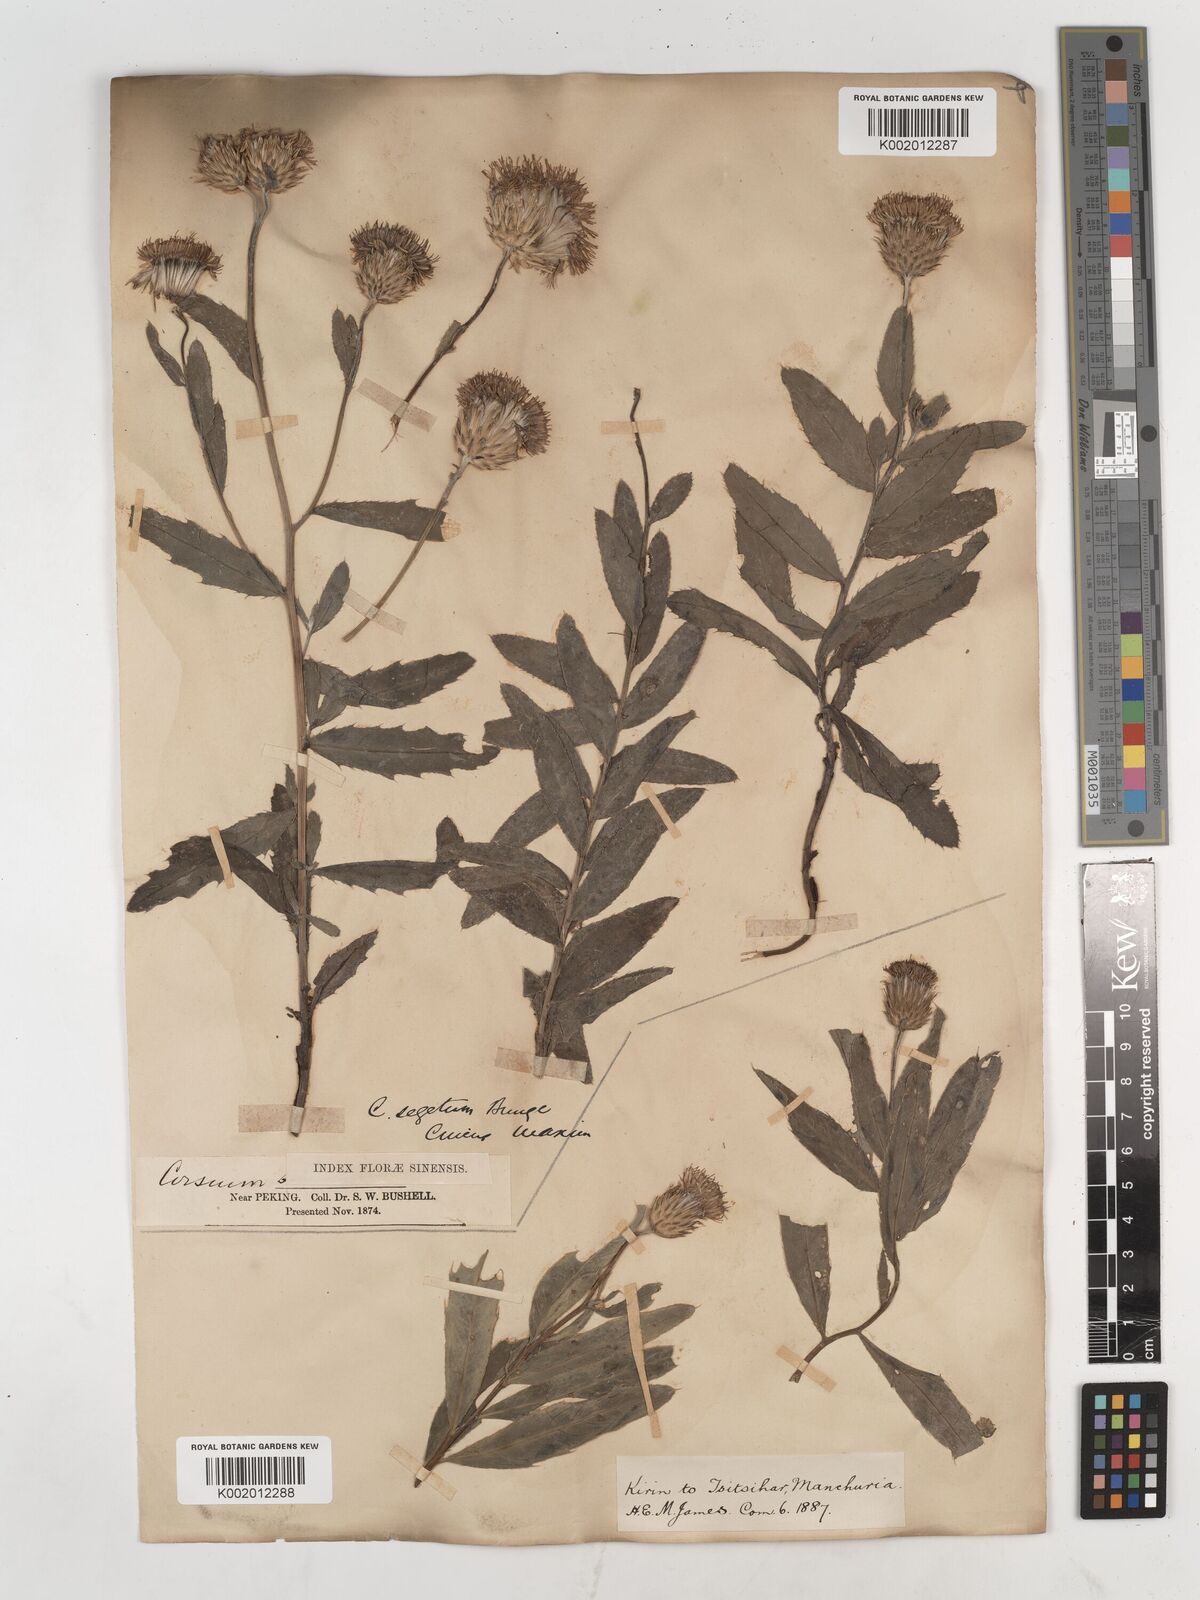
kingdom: Plantae
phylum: Tracheophyta
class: Magnoliopsida
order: Asterales
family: Asteraceae
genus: Cirsium
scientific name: Cirsium arvense
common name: Creeping thistle
